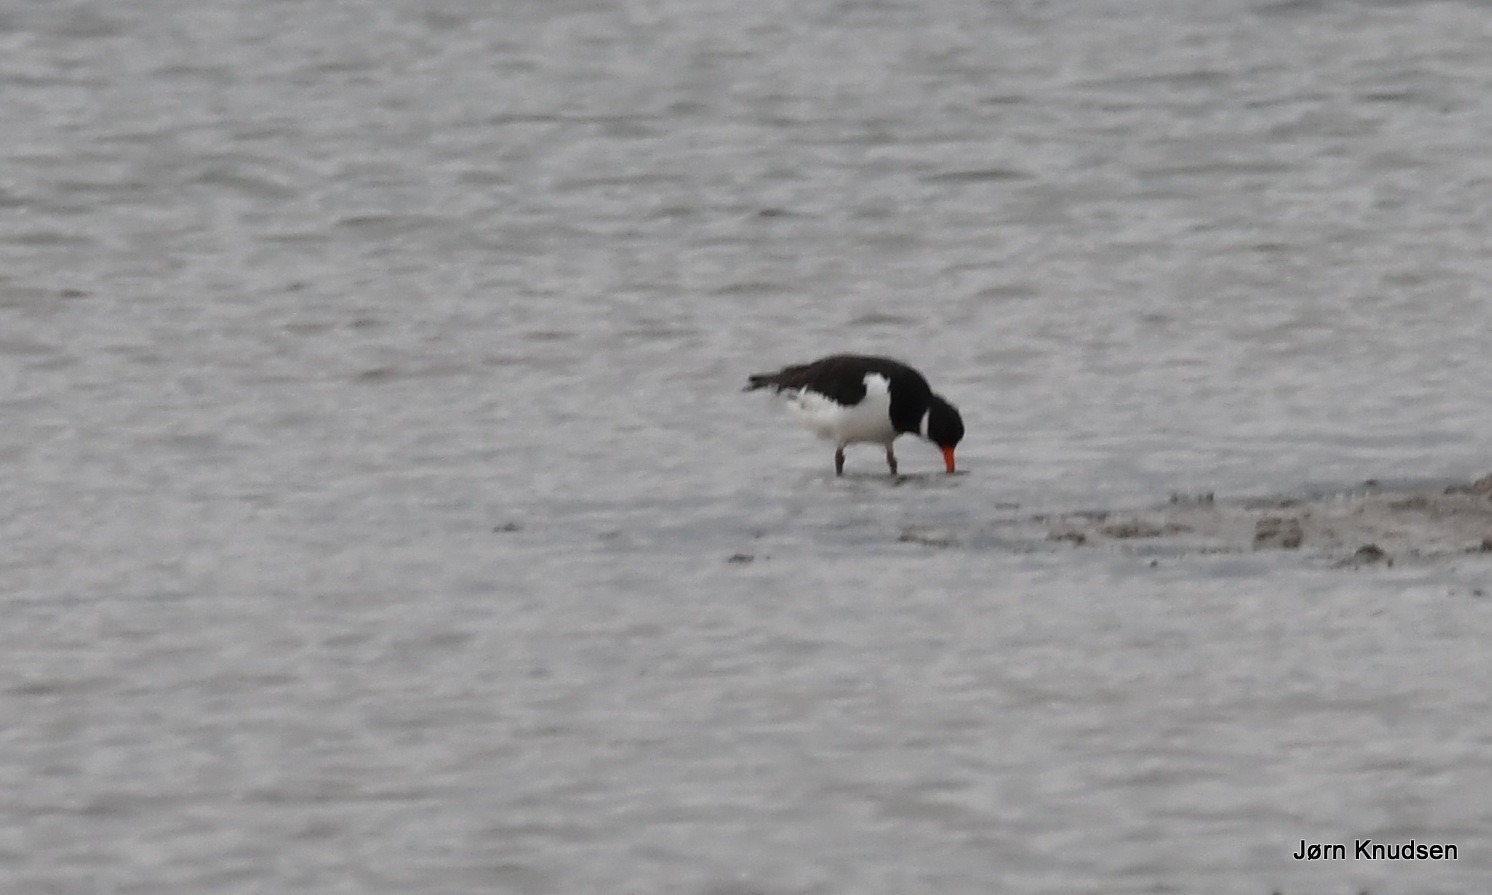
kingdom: Animalia
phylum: Chordata
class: Aves
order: Charadriiformes
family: Haematopodidae
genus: Haematopus
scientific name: Haematopus ostralegus
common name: Strandskade
